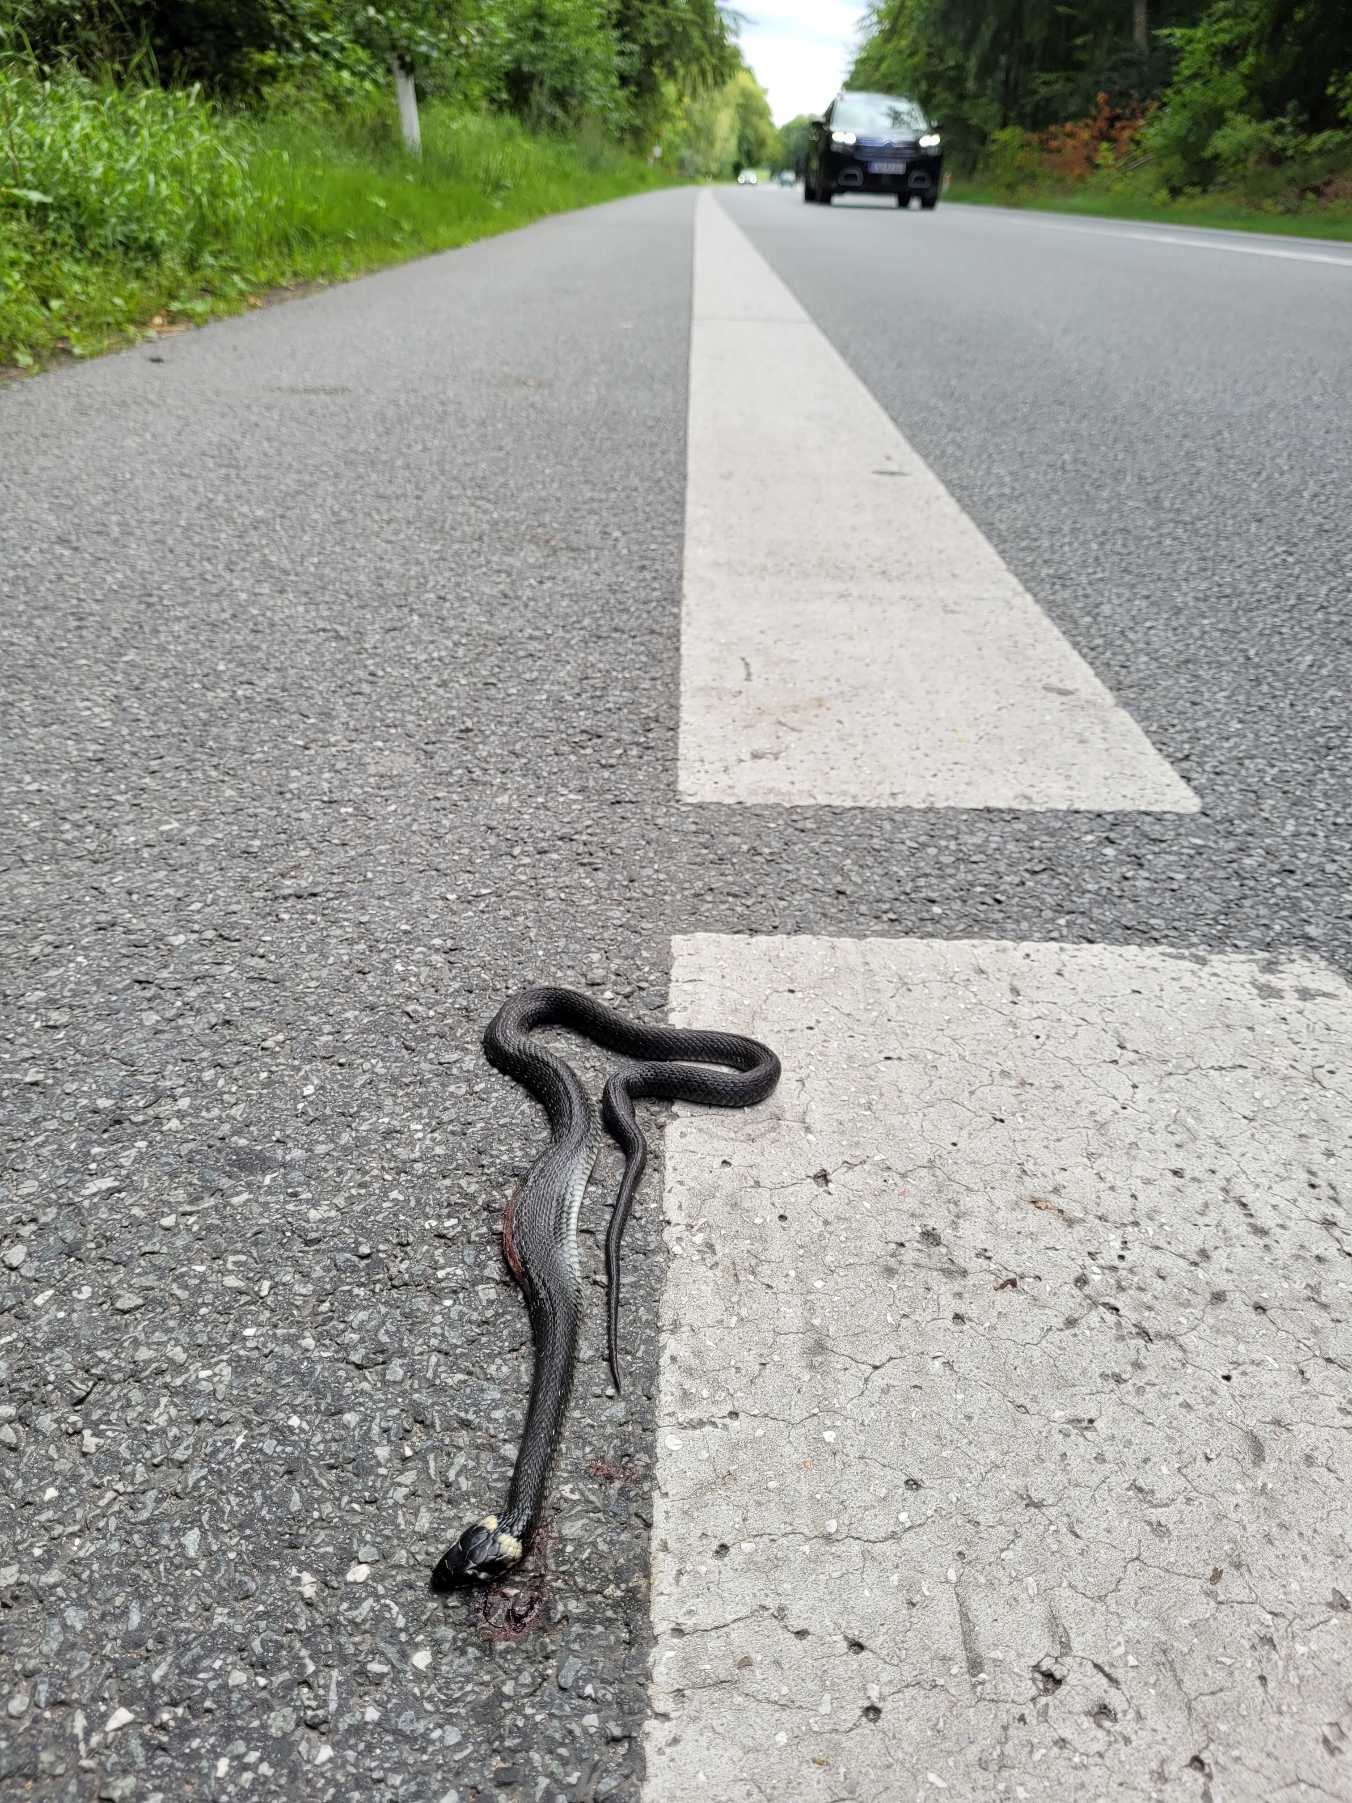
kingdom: Animalia
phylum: Chordata
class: Squamata
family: Colubridae
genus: Natrix
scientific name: Natrix natrix
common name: Snog
